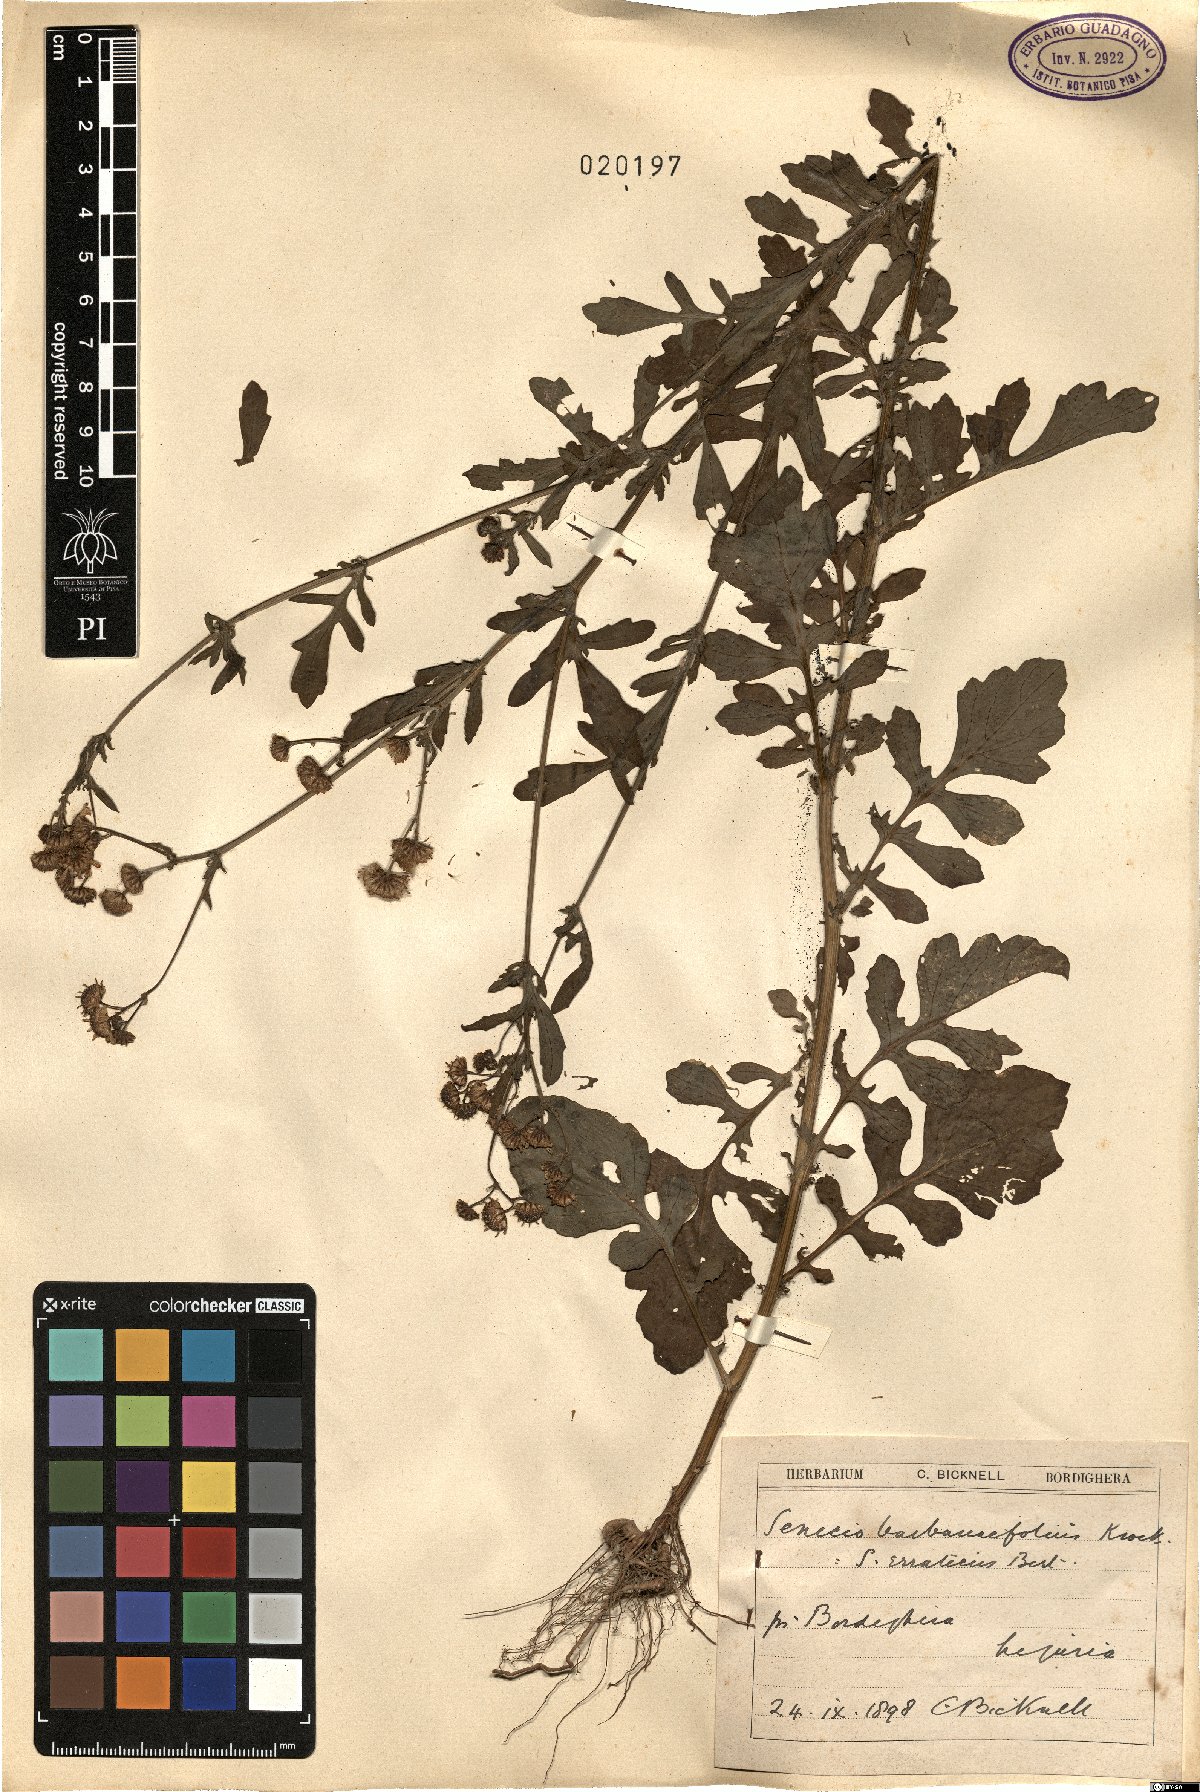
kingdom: Plantae
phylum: Tracheophyta
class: Magnoliopsida
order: Asterales
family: Asteraceae
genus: Jacobaea
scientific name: Jacobaea erratica
